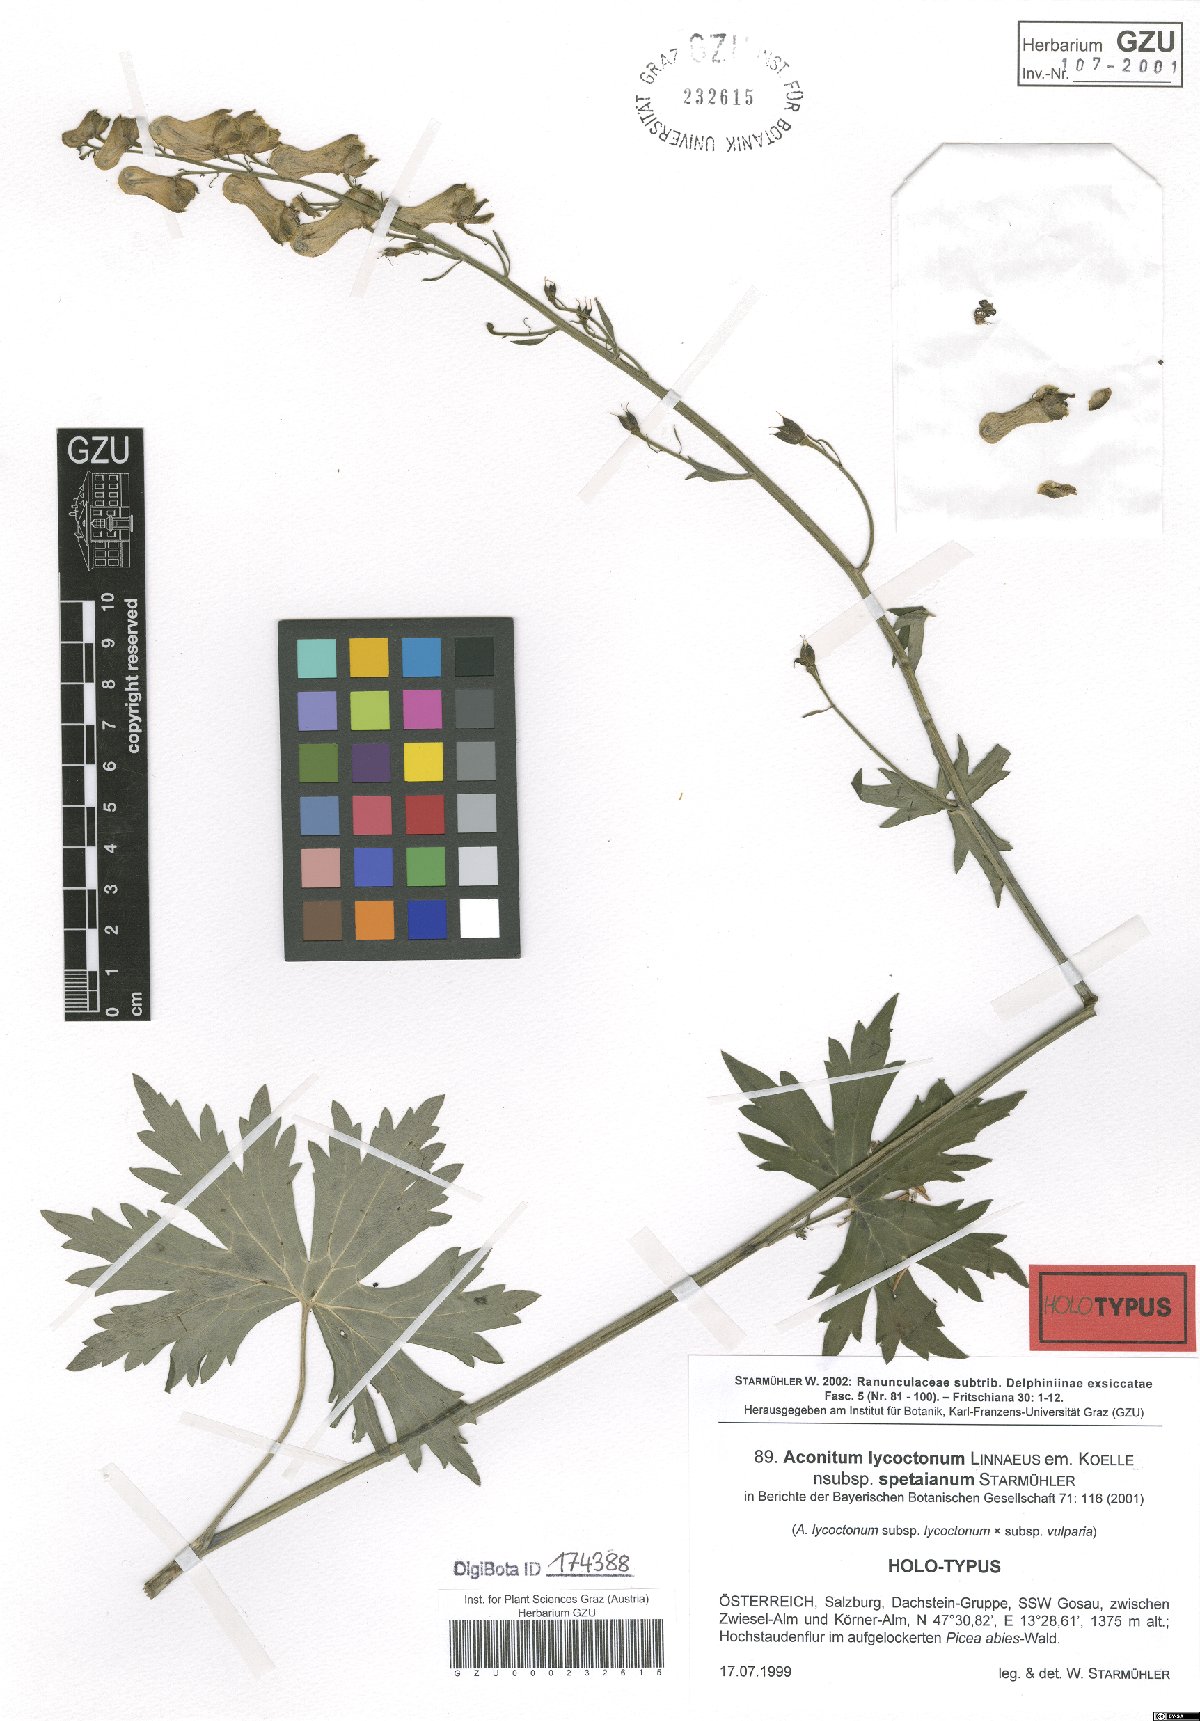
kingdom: Plantae
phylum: Tracheophyta
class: Magnoliopsida
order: Ranunculales
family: Ranunculaceae
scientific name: Ranunculaceae
